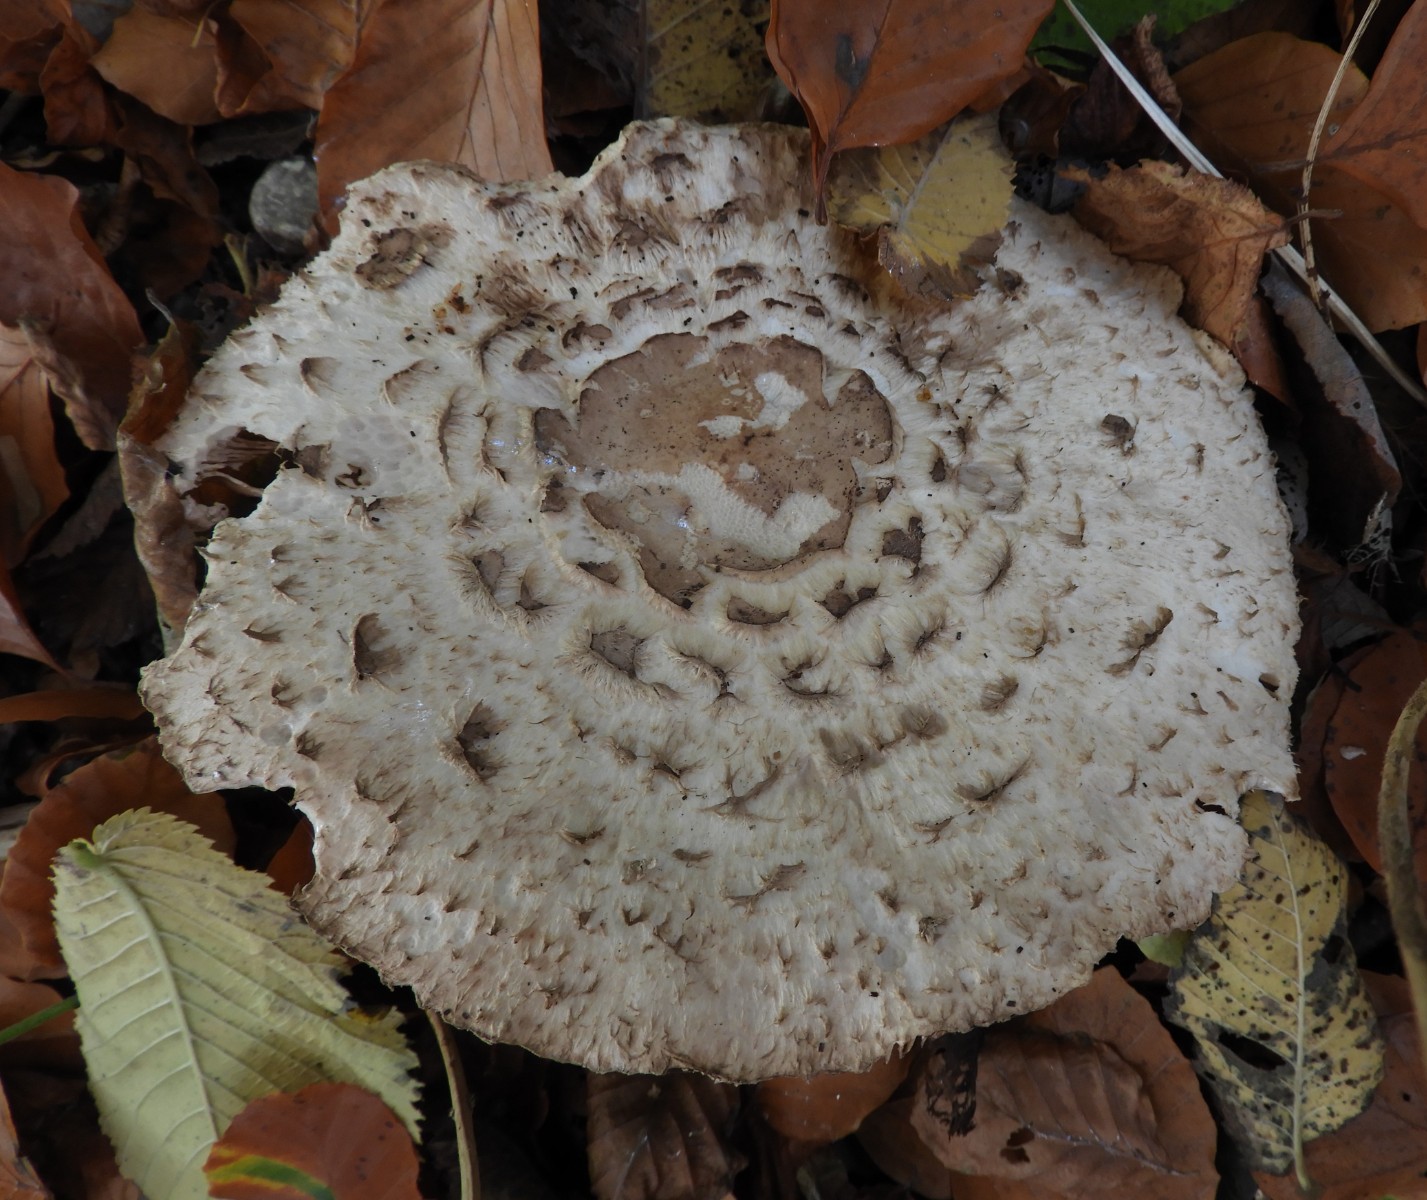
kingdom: Fungi
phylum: Basidiomycota
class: Agaricomycetes
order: Agaricales
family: Agaricaceae
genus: Chlorophyllum
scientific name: Chlorophyllum olivieri
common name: almindelig rabarberhat
